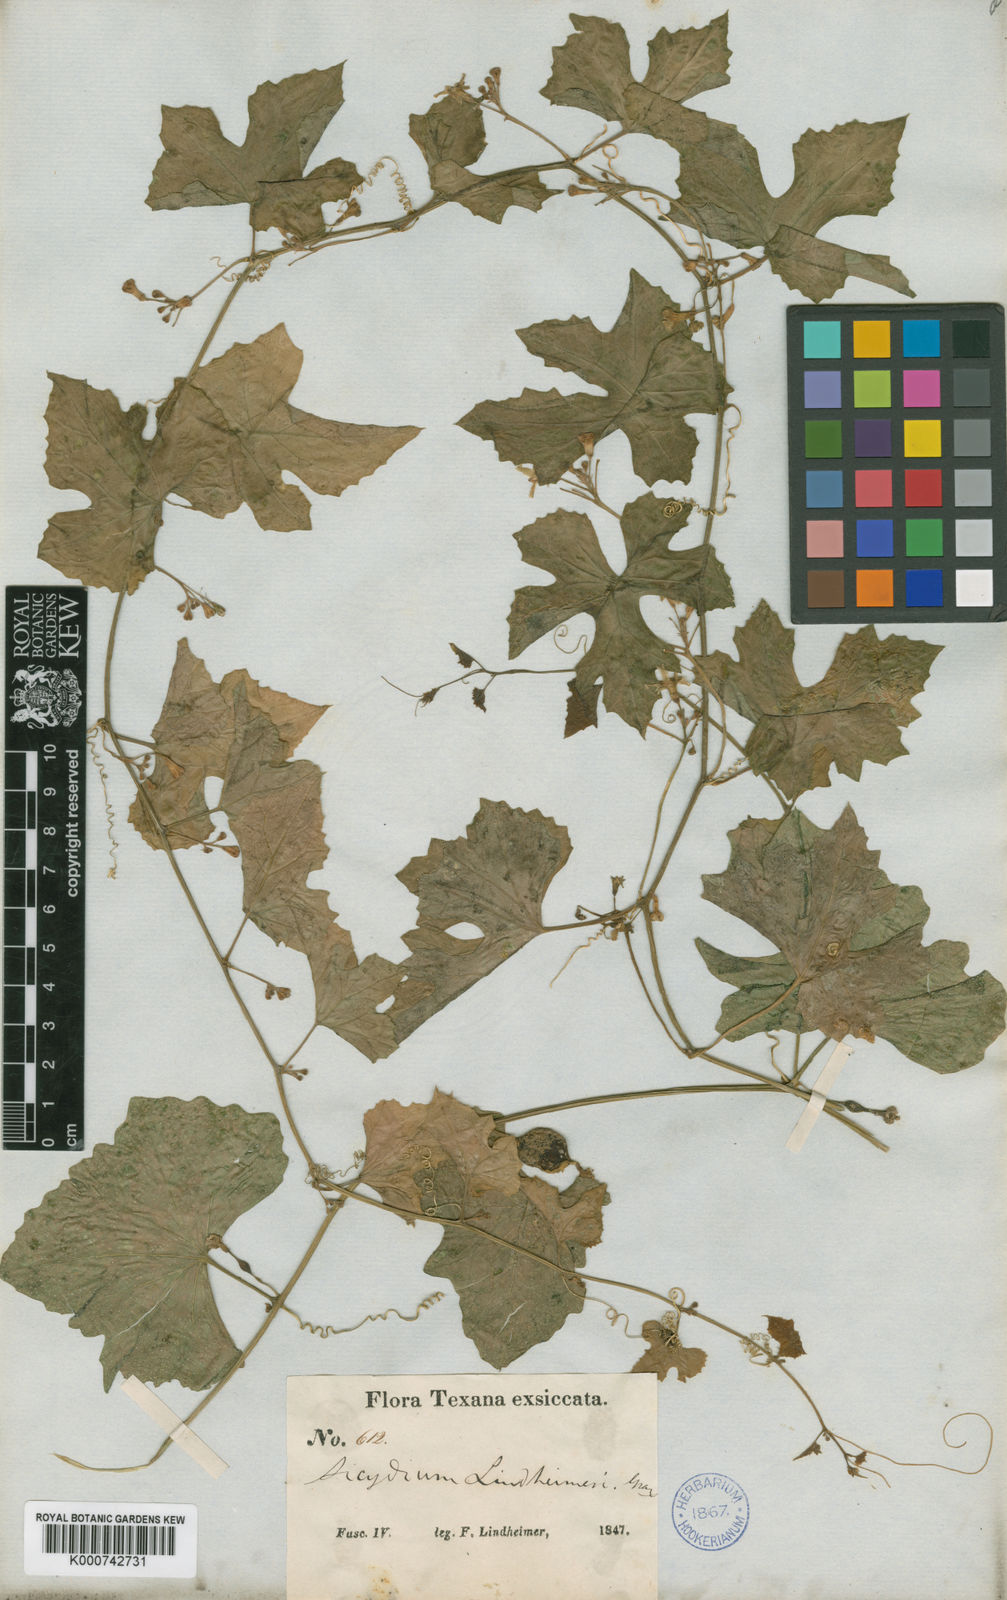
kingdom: Plantae
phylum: Tracheophyta
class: Magnoliopsida
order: Cucurbitales
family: Cucurbitaceae
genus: Ibervillea
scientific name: Ibervillea lindheimeri
